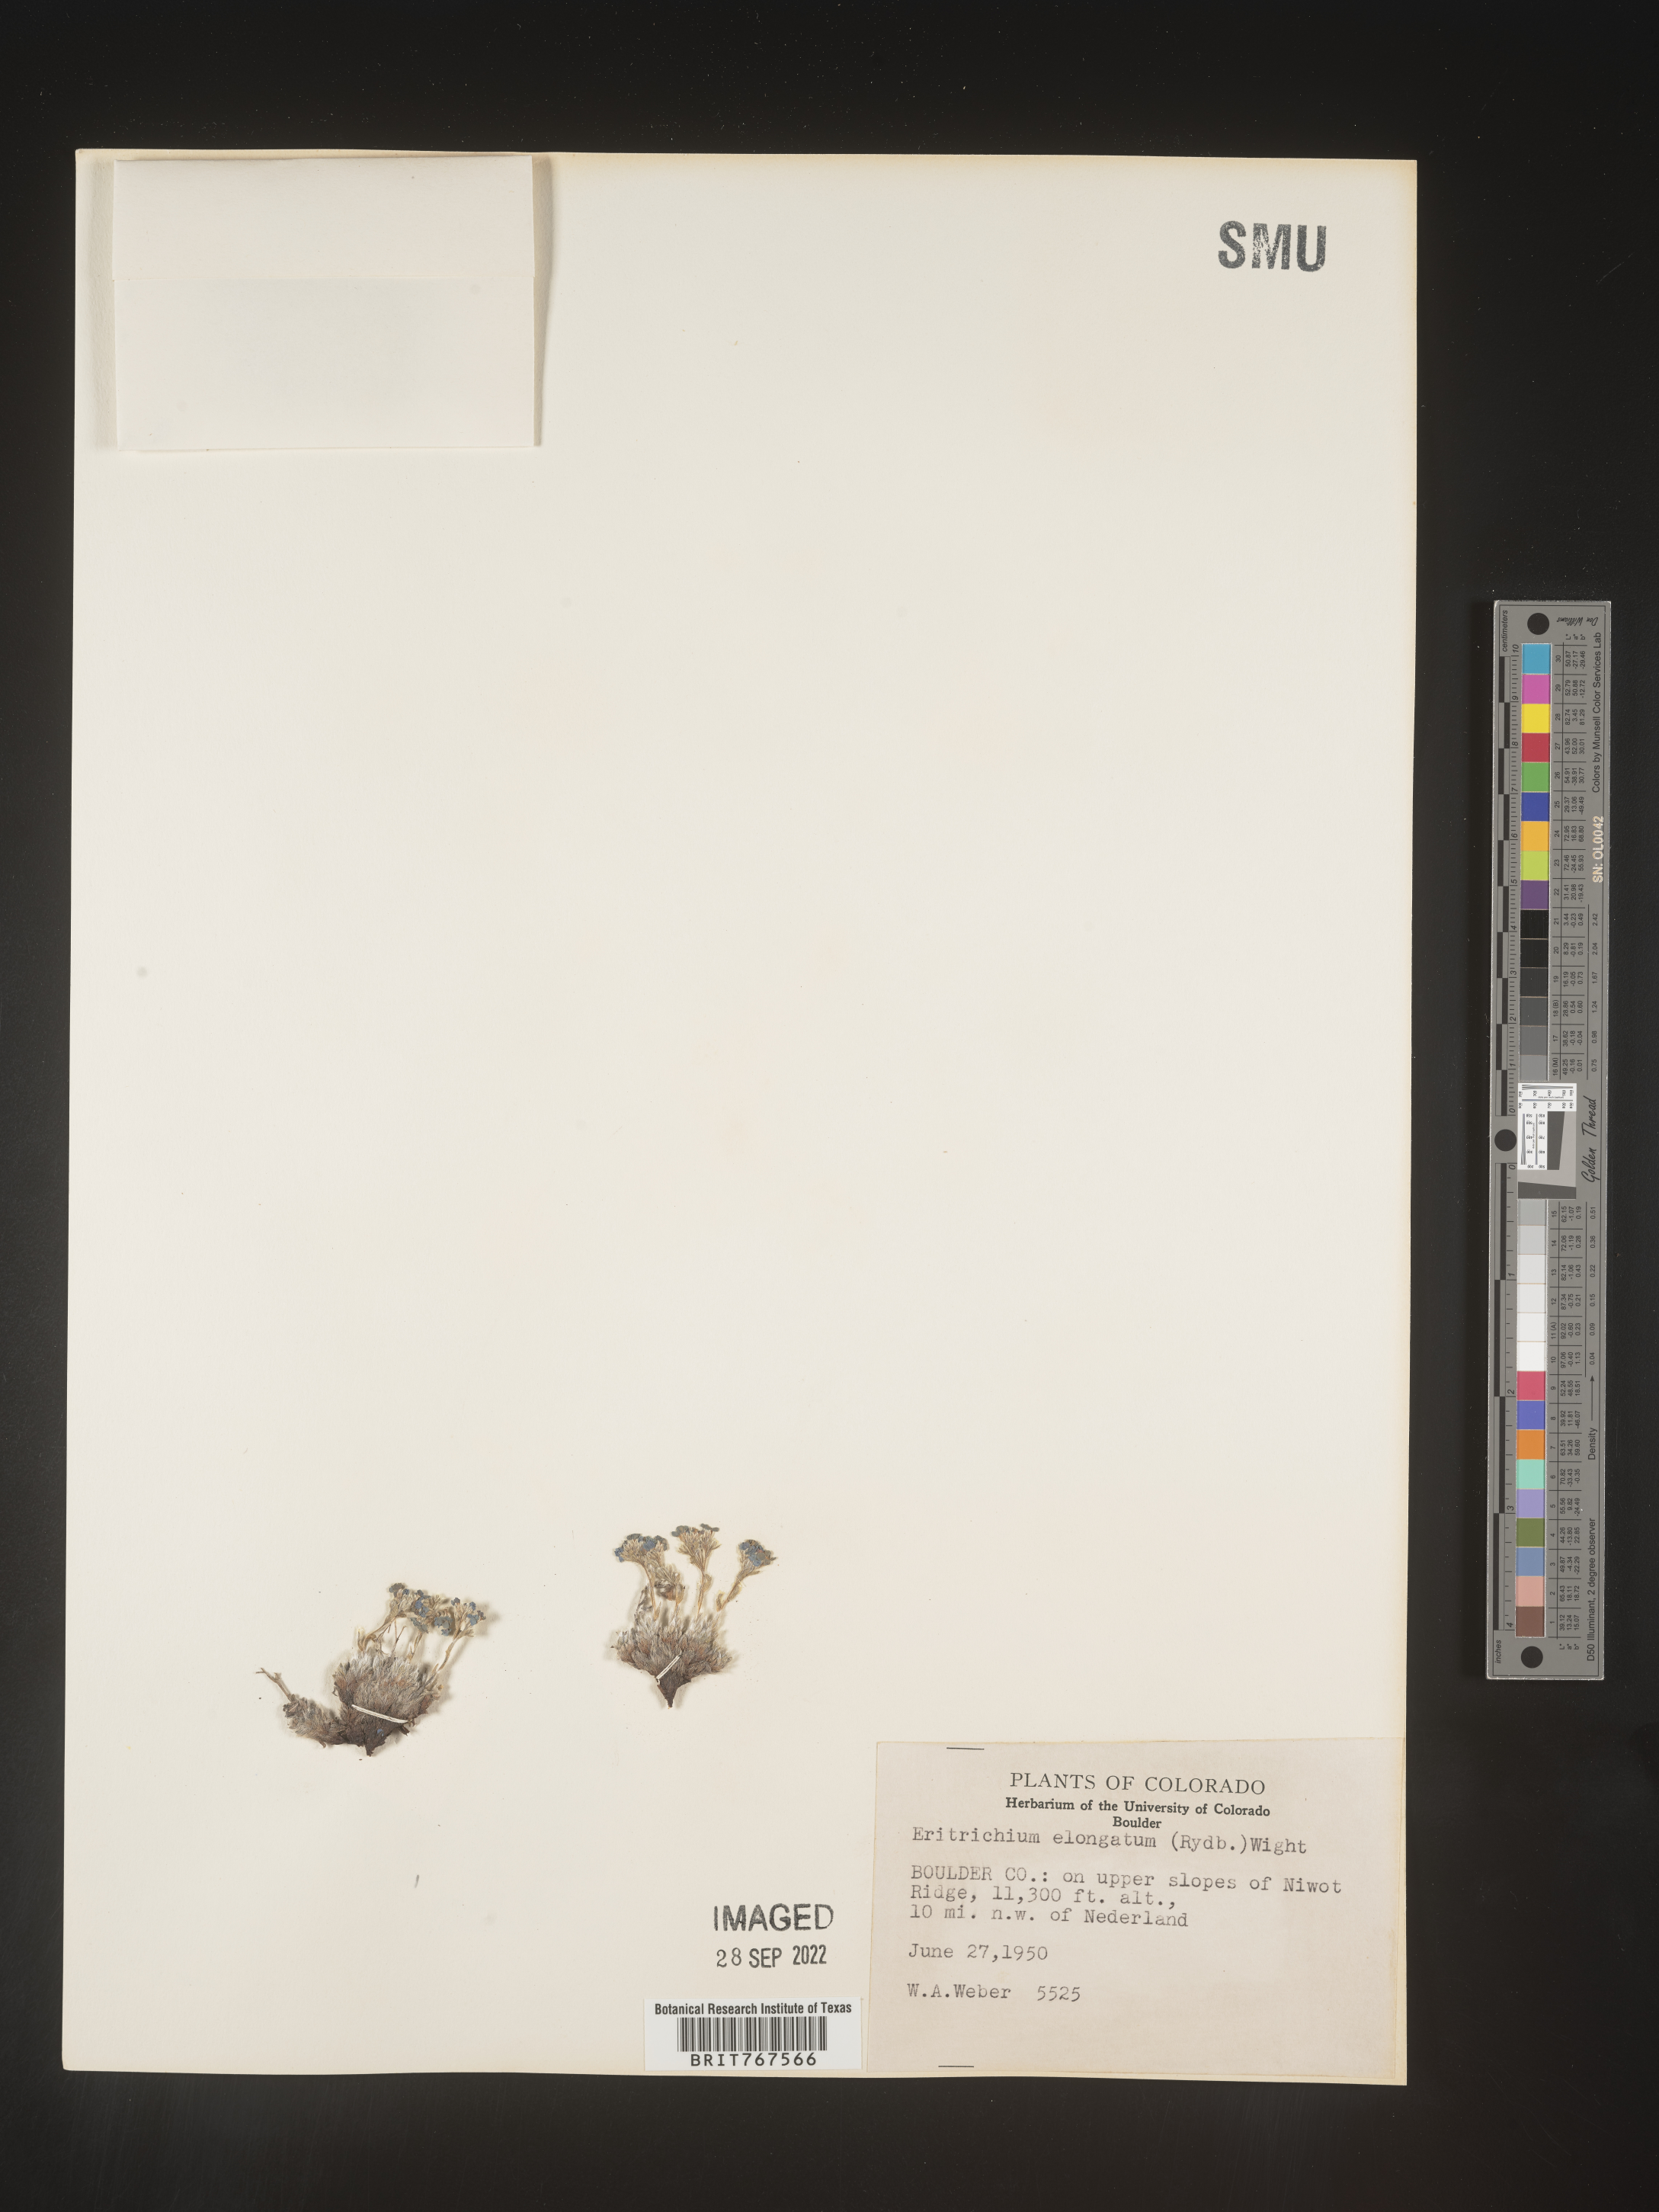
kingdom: Plantae
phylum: Tracheophyta
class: Magnoliopsida
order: Boraginales
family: Boraginaceae
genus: Eritrichium
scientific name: Eritrichium
